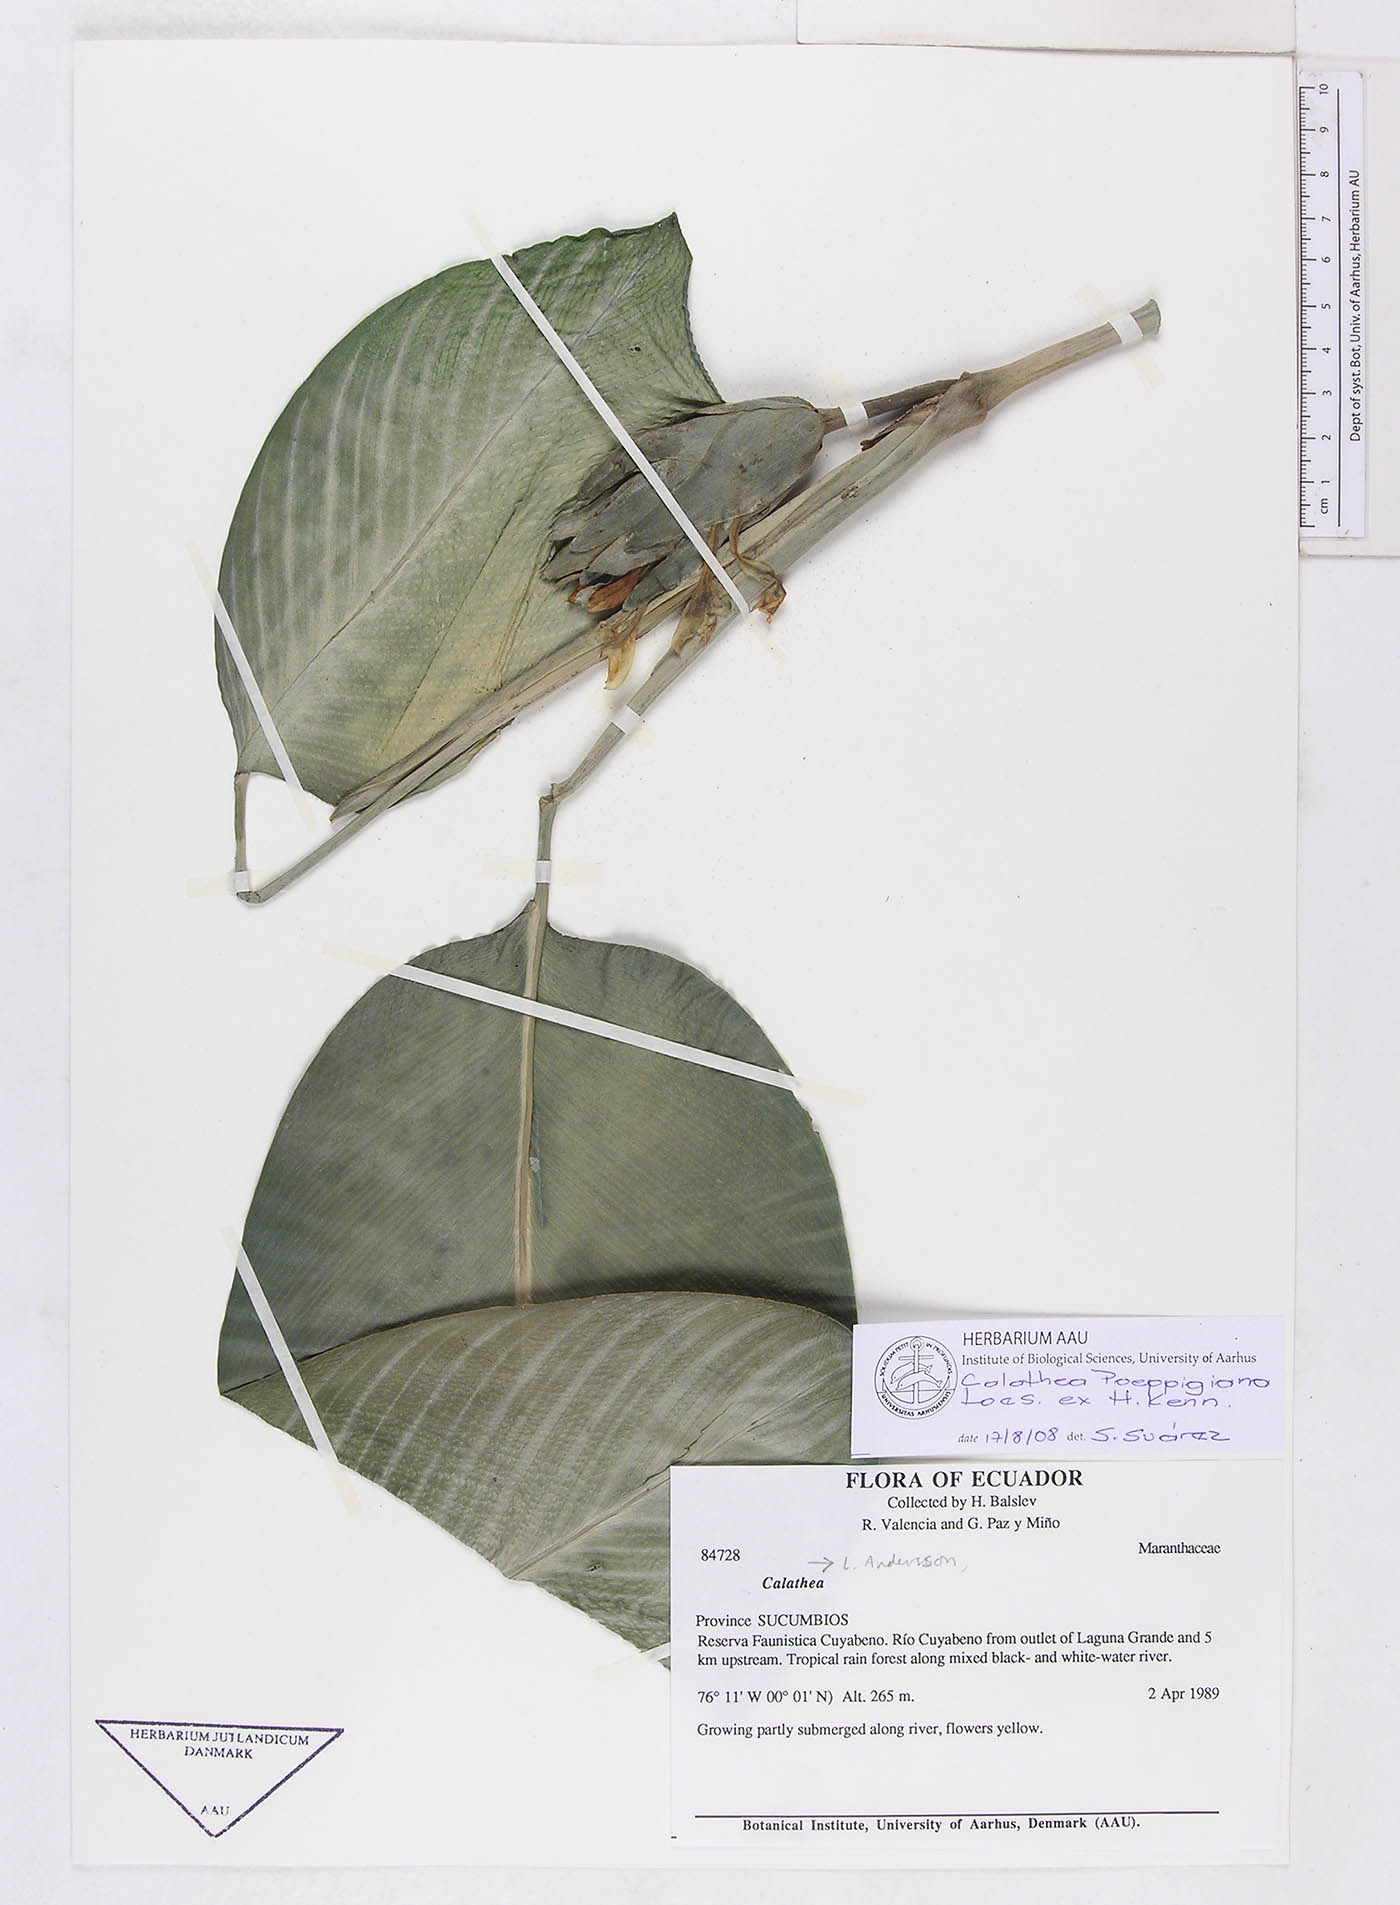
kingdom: Plantae
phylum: Tracheophyta
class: Liliopsida
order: Zingiberales
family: Marantaceae
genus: Goeppertia
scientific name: Goeppertia poeppigiana
